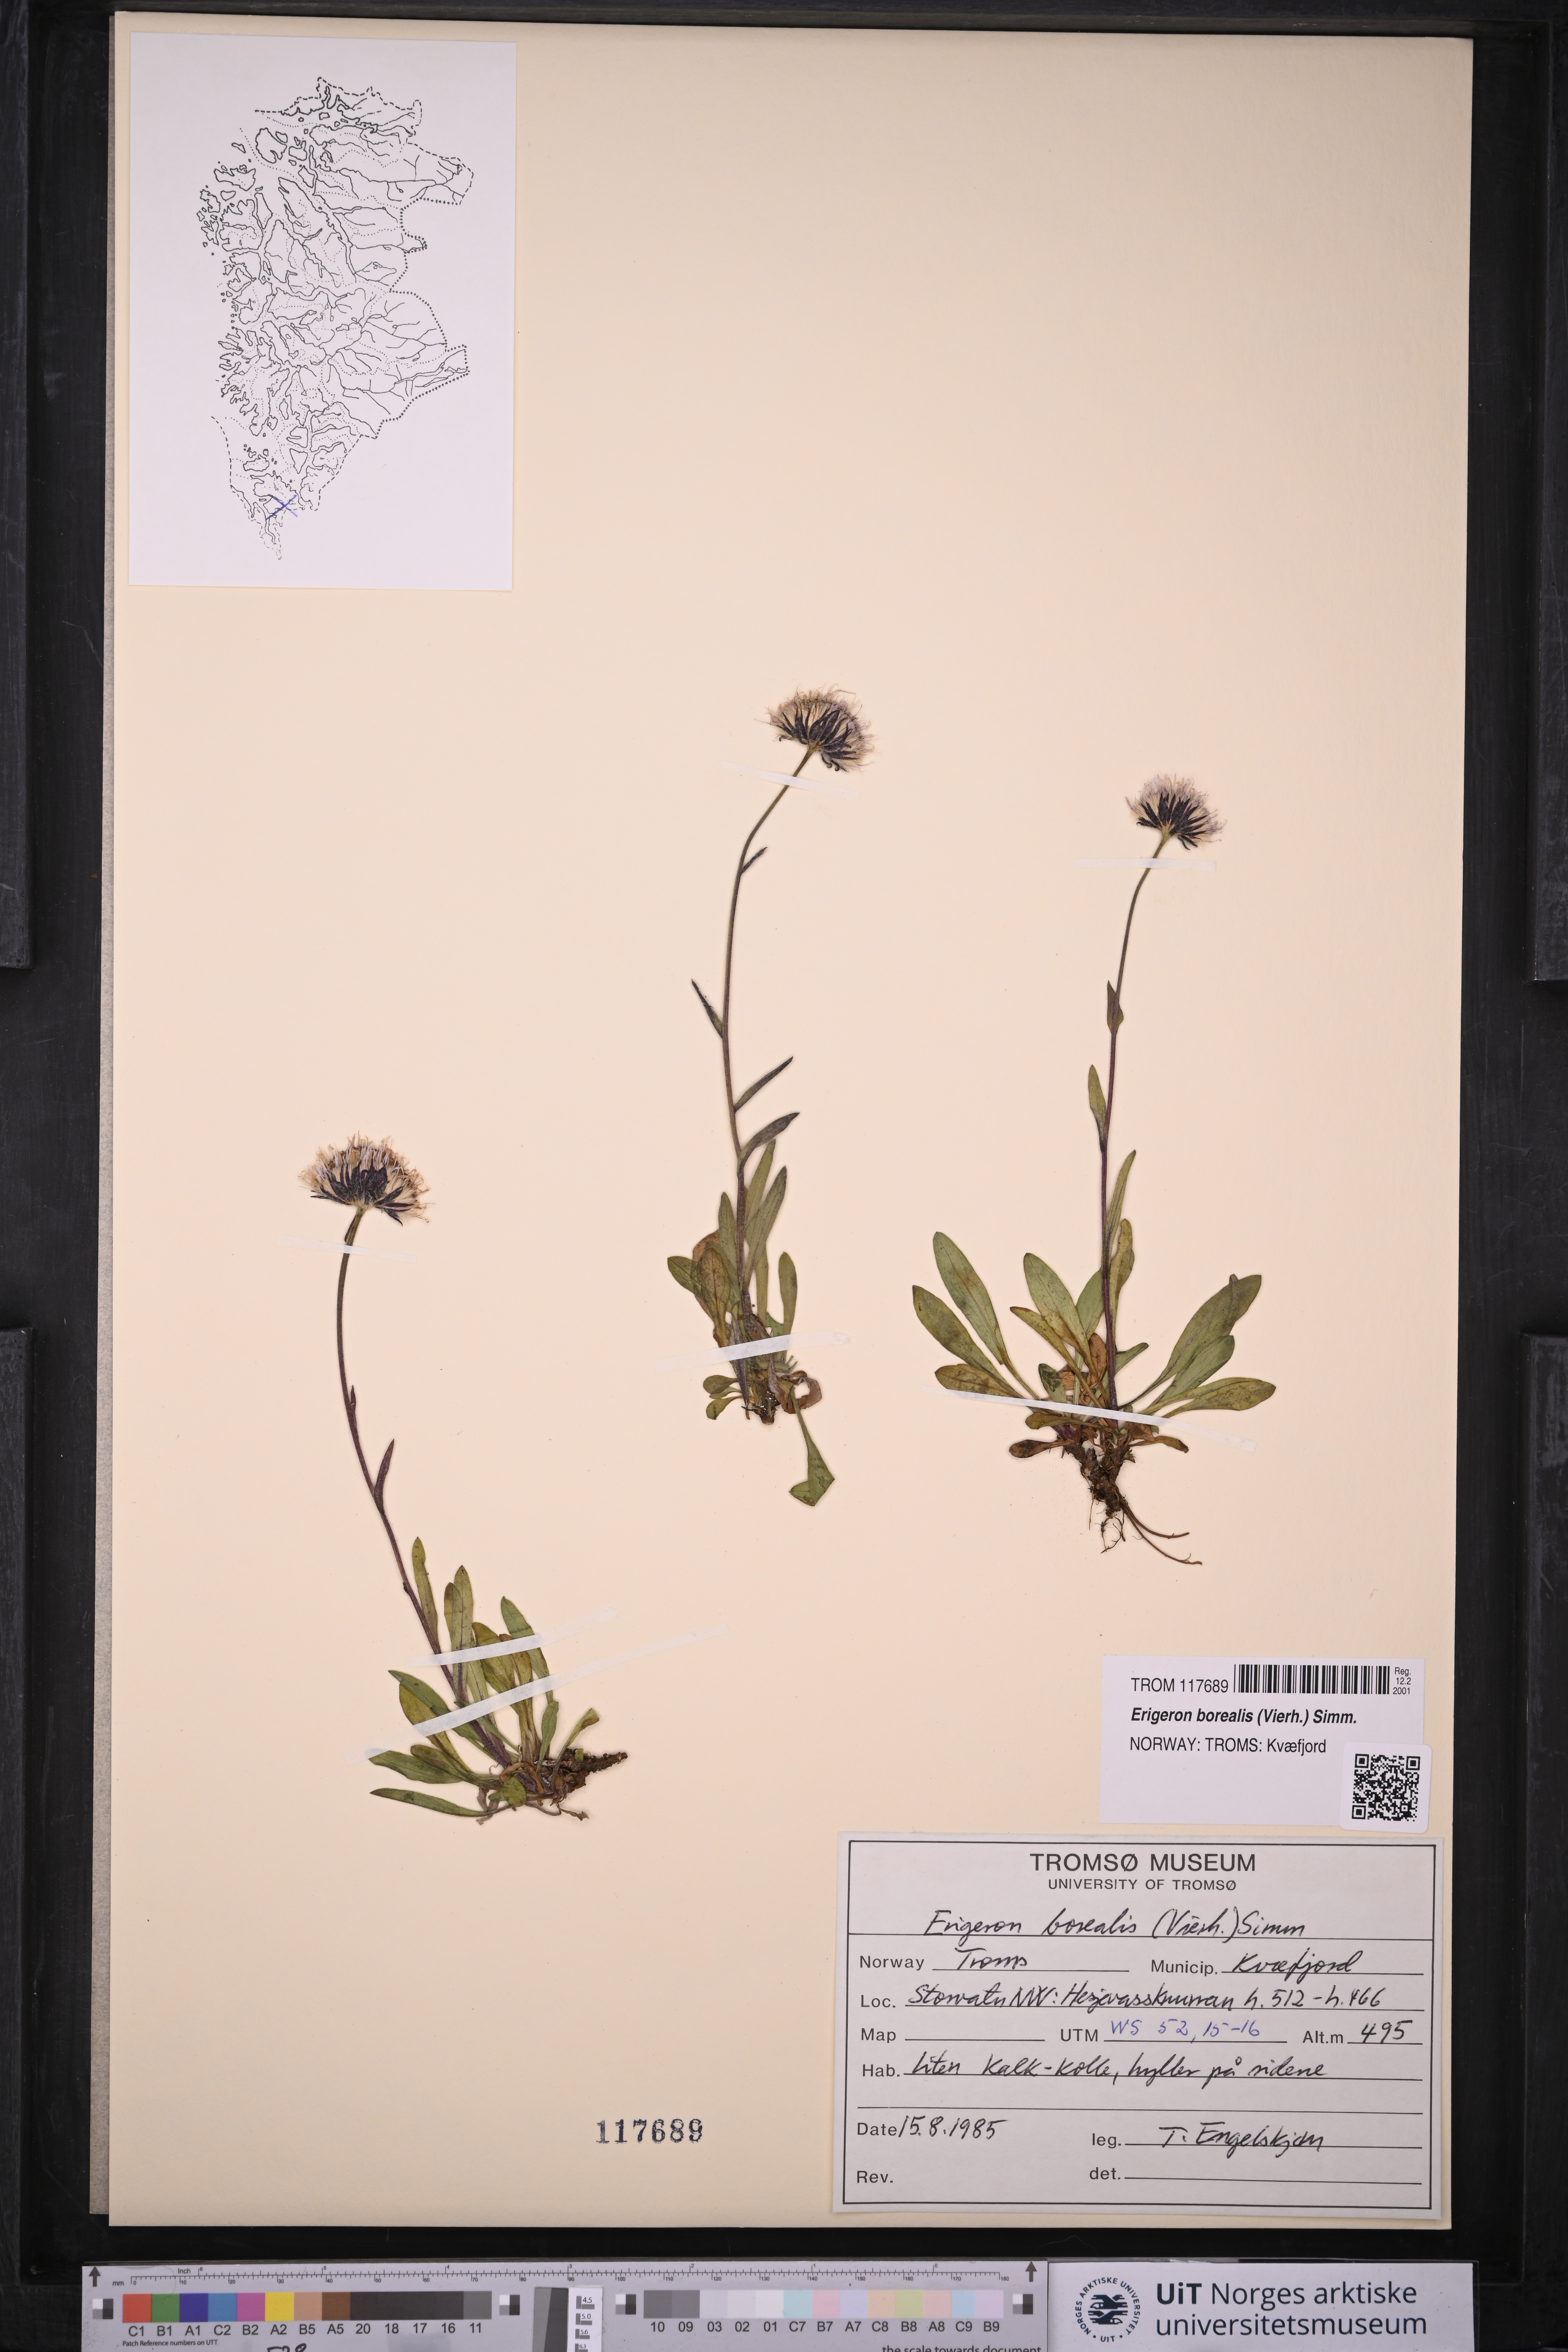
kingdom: Plantae
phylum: Tracheophyta
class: Magnoliopsida
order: Asterales
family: Asteraceae
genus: Erigeron
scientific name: Erigeron borealis
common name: Alpine fleabane
